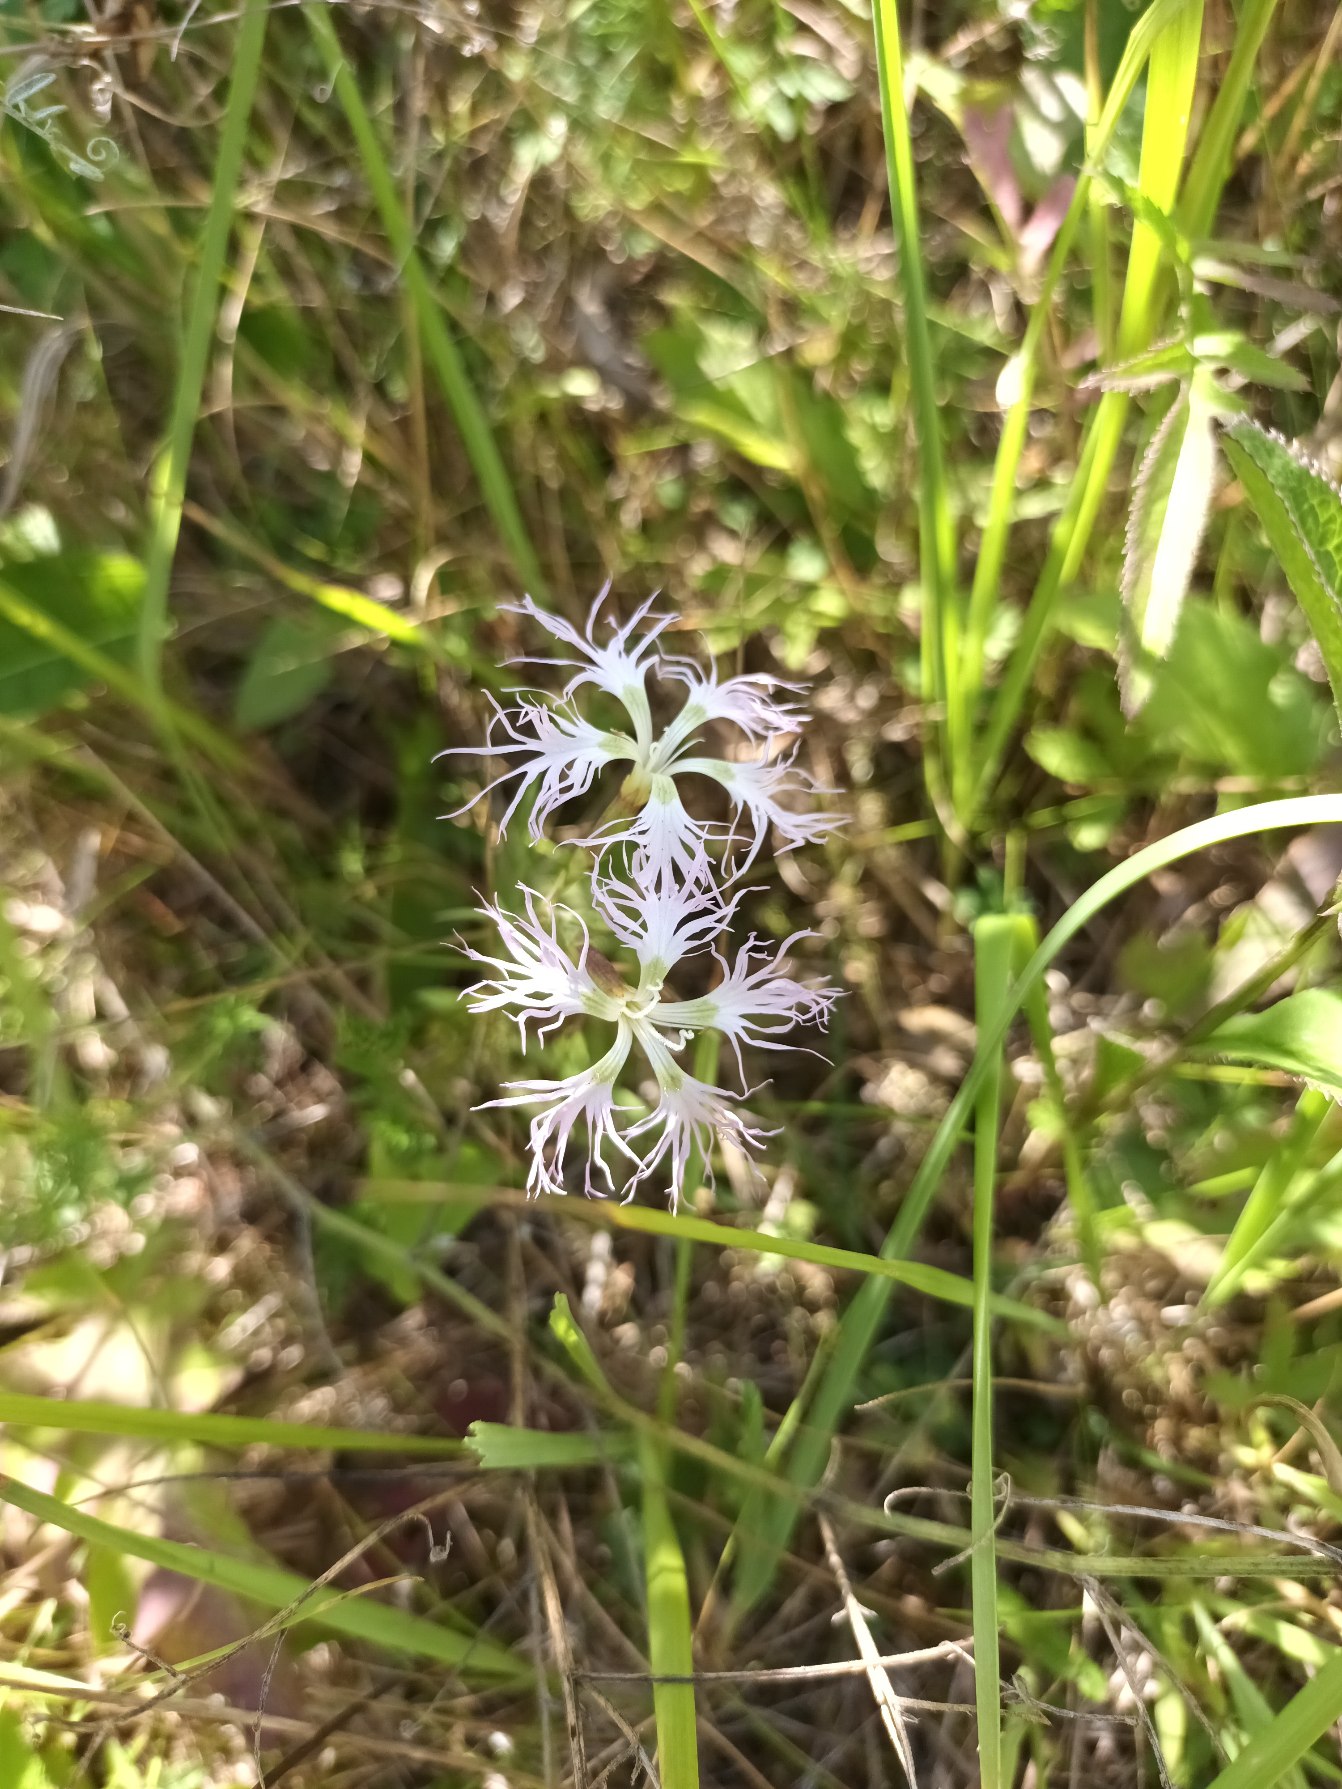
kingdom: Plantae
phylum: Tracheophyta
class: Magnoliopsida
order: Caryophyllales
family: Caryophyllaceae
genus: Dianthus
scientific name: Dianthus superbus
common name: Strand-nellike
